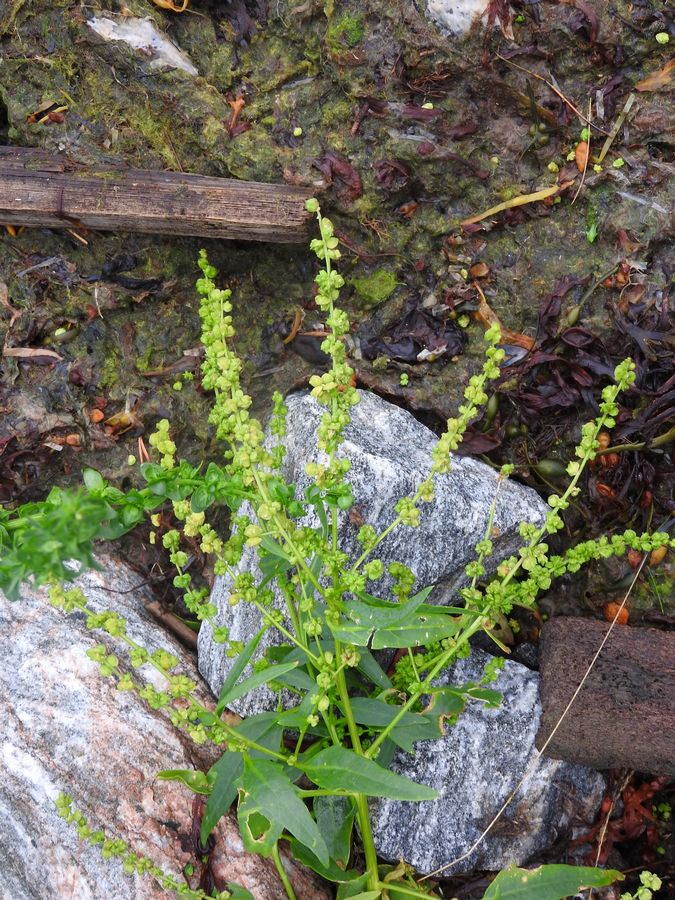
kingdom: Plantae
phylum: Tracheophyta
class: Magnoliopsida
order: Caryophyllales
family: Amaranthaceae
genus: Atriplex
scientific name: Atriplex praecox
